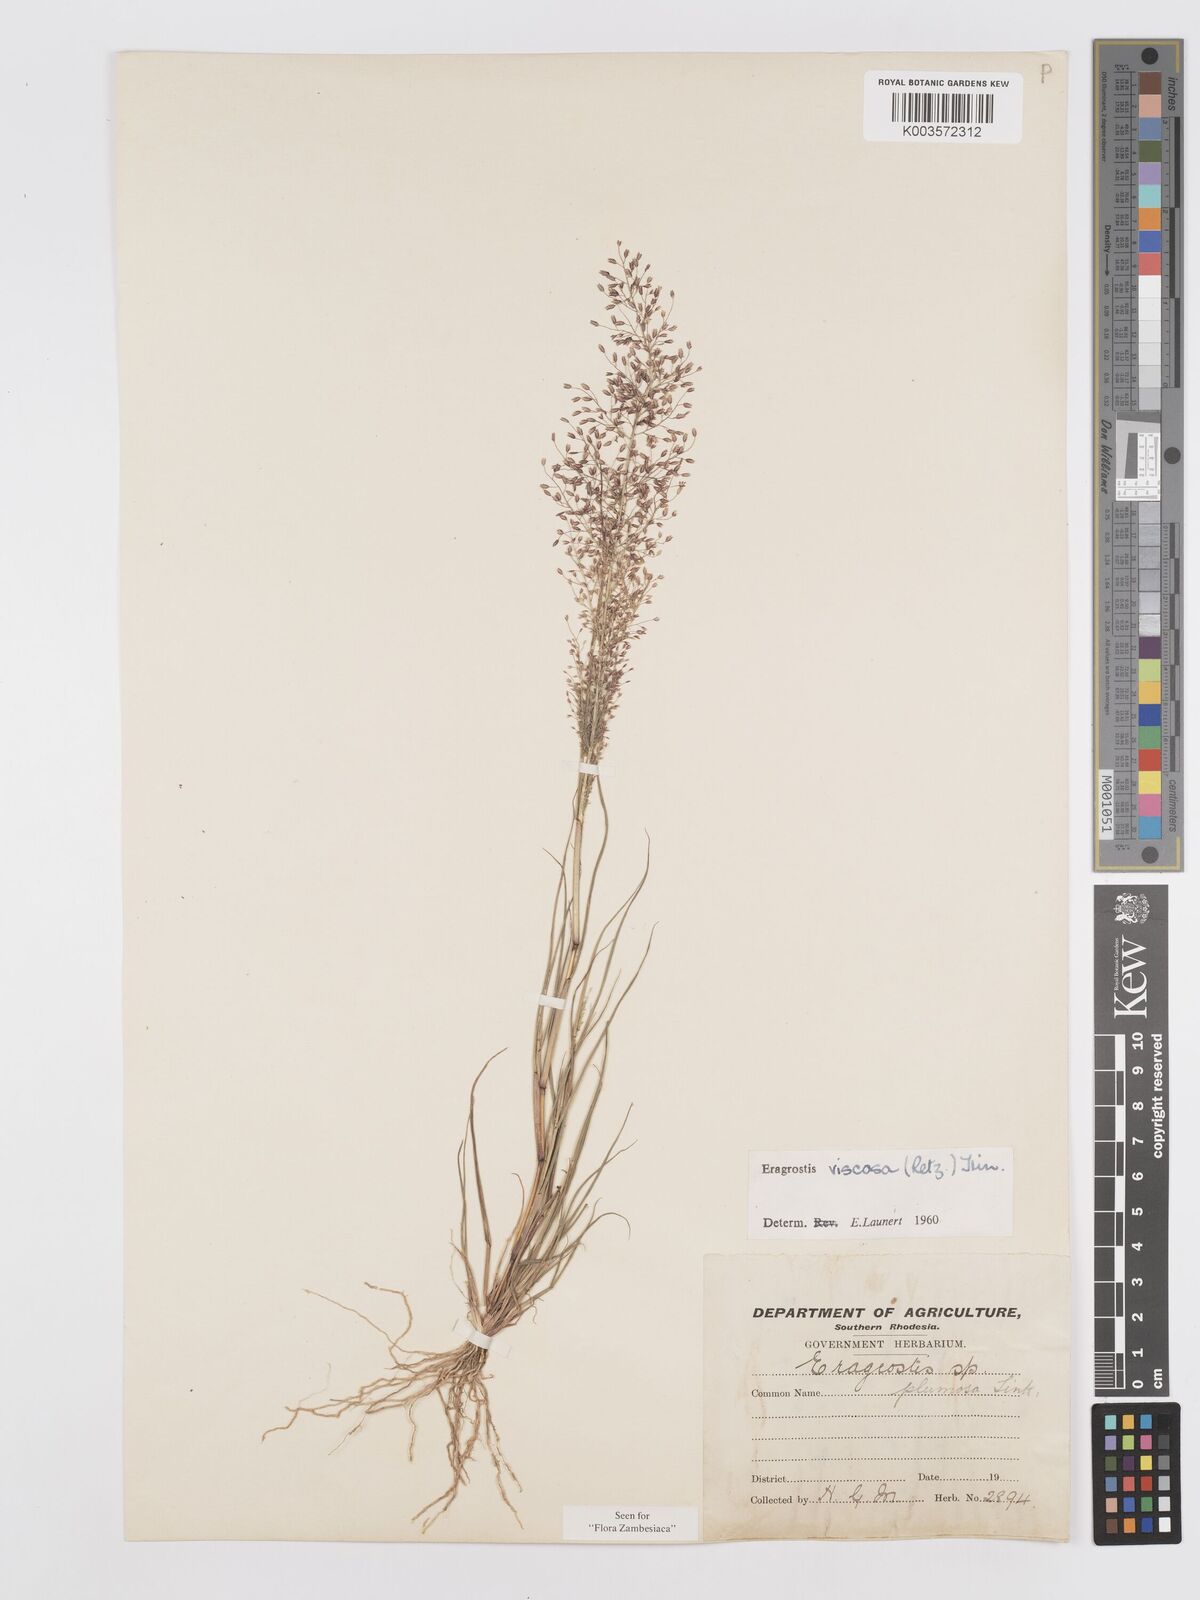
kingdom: Plantae
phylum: Tracheophyta
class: Liliopsida
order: Poales
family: Poaceae
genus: Eragrostis
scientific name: Eragrostis
